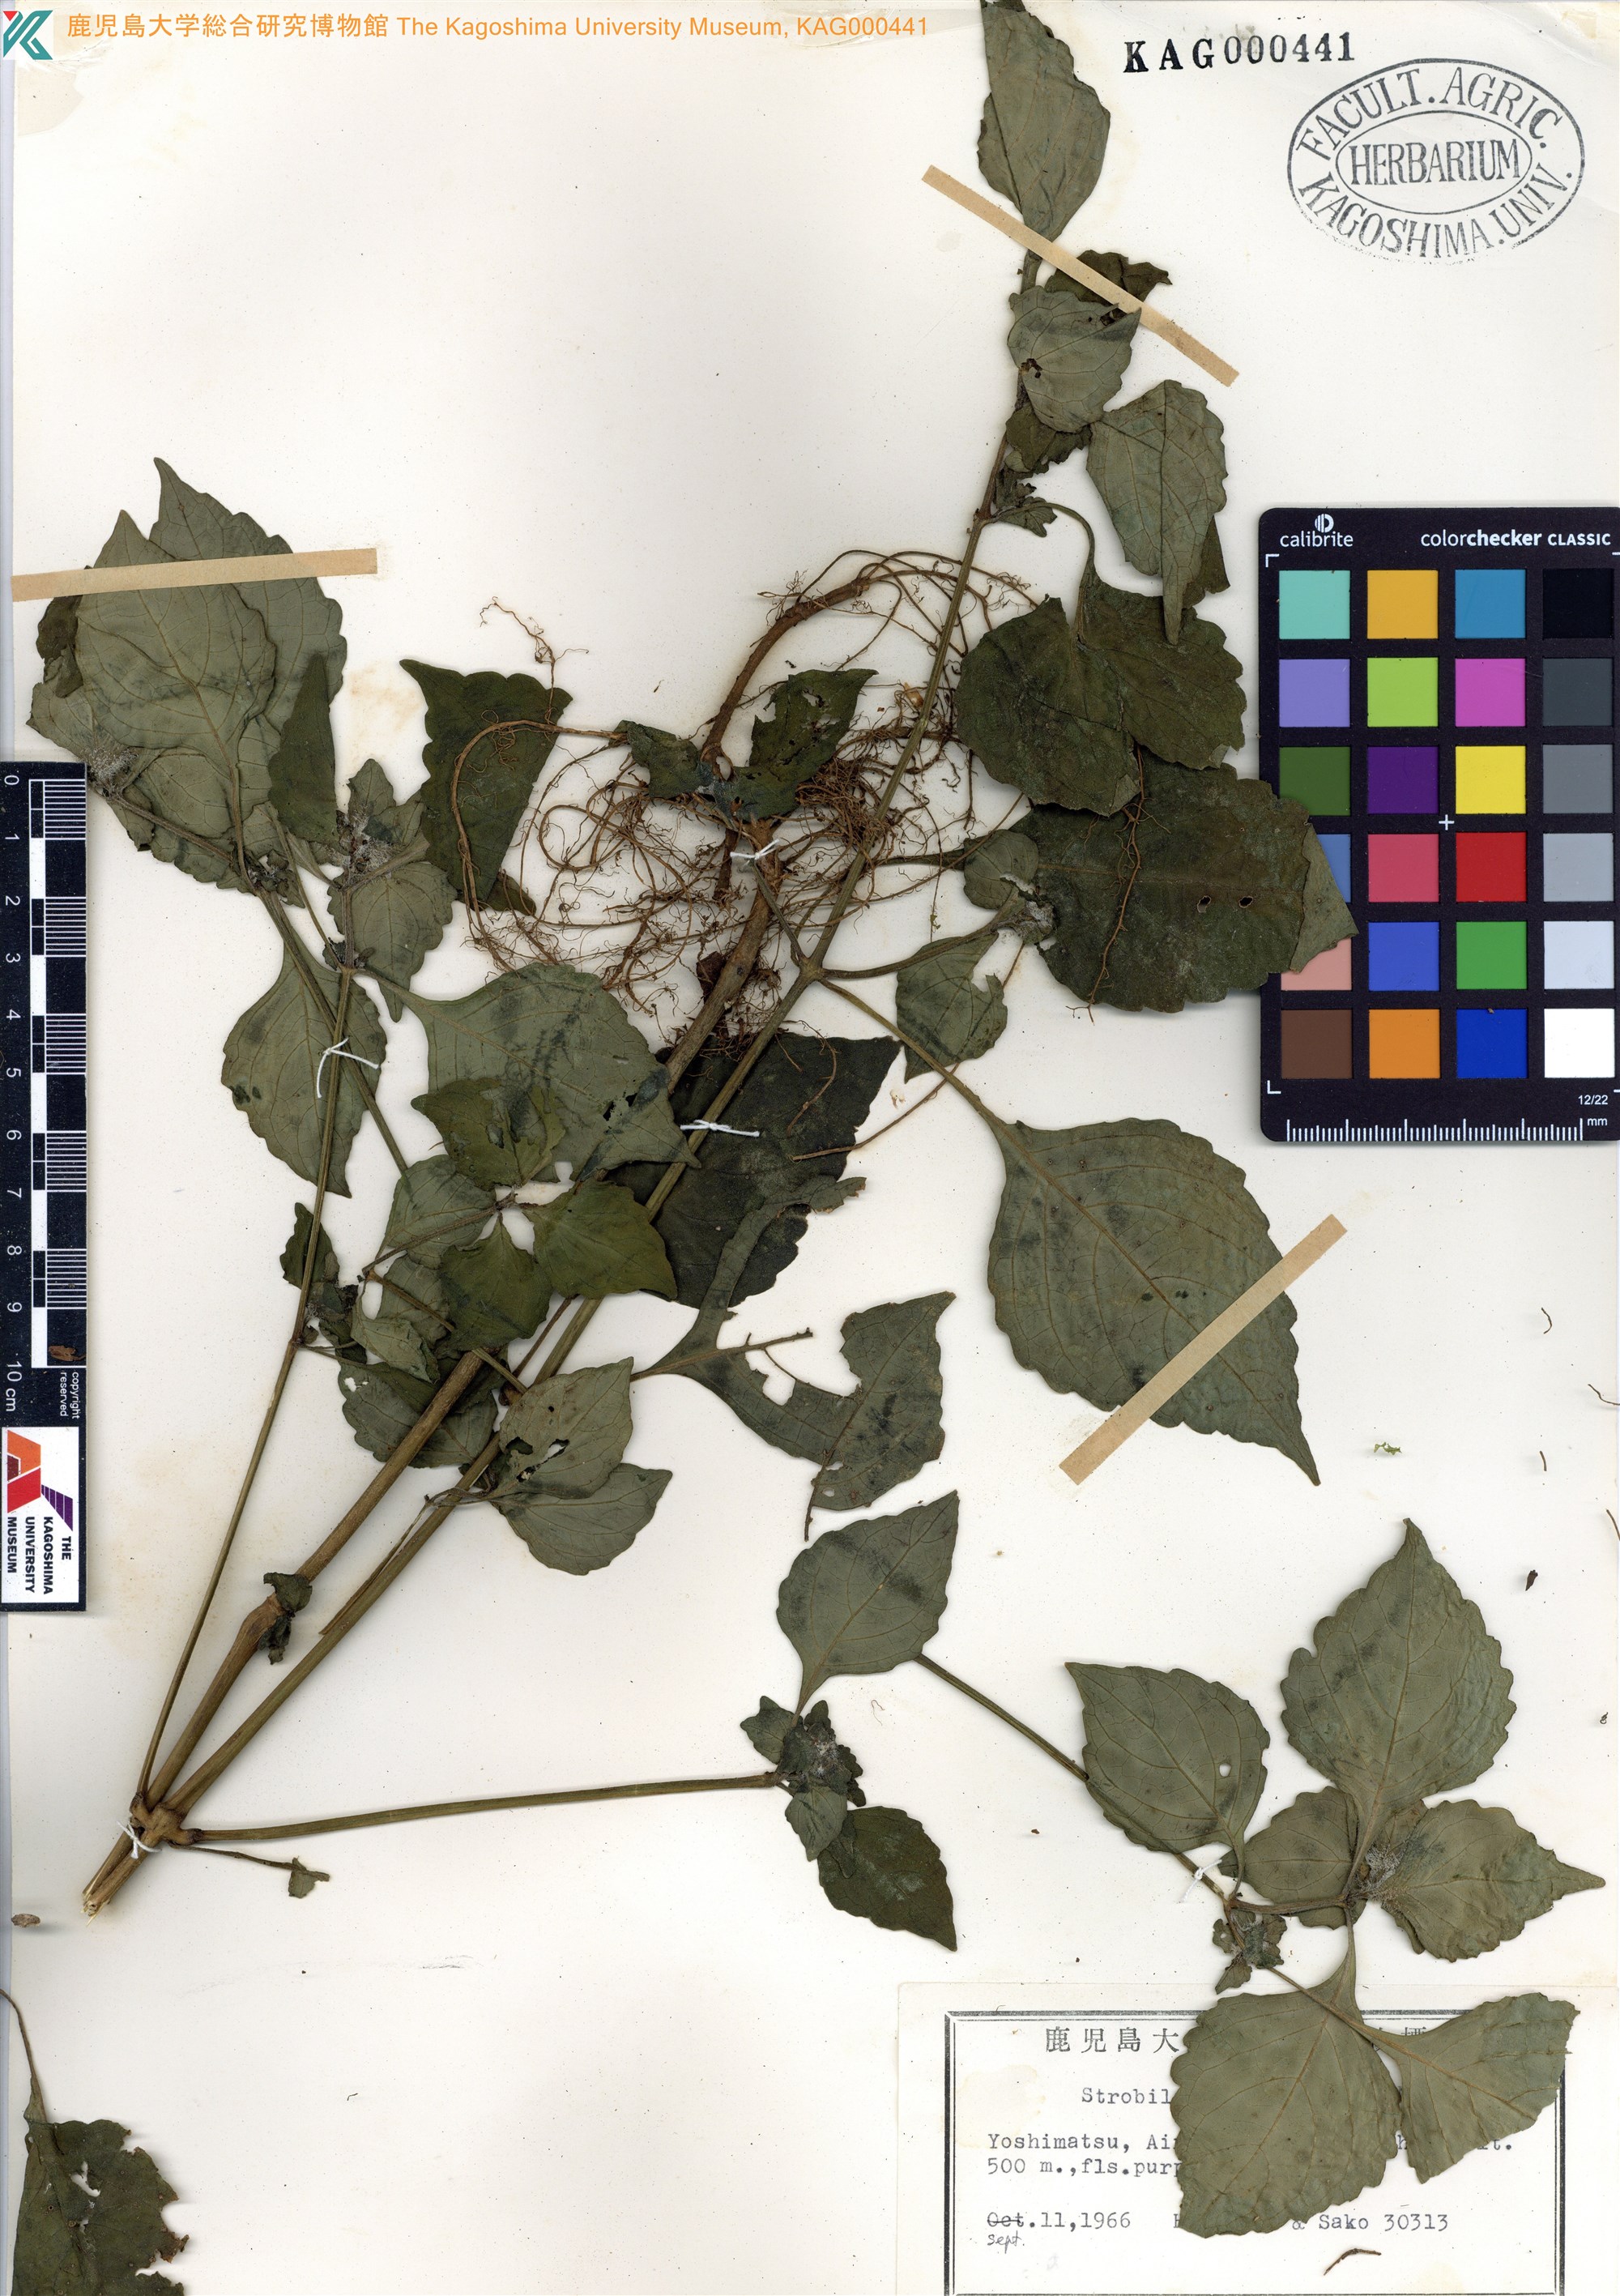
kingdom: Plantae
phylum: Tracheophyta
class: Magnoliopsida
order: Lamiales
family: Acanthaceae
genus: Strobilanthes
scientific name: Strobilanthes oligantha
